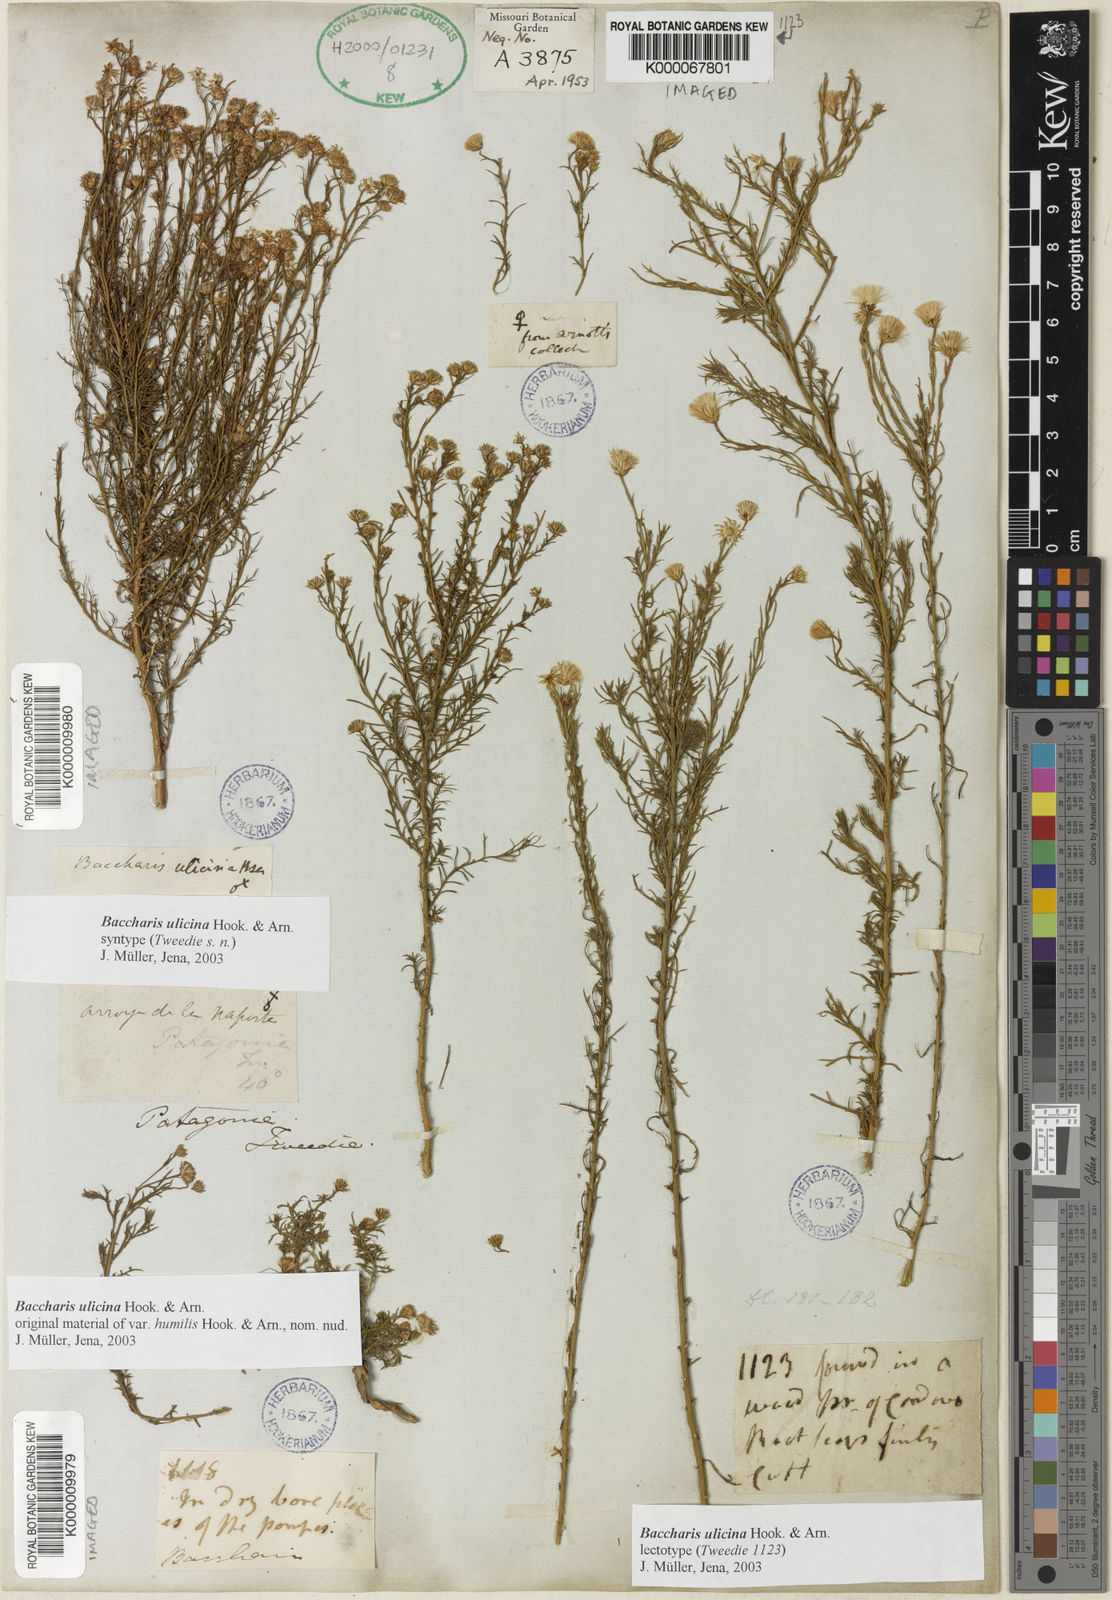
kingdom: Plantae
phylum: Tracheophyta
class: Magnoliopsida
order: Asterales
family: Asteraceae
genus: Baccharis
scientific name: Baccharis ulicina
